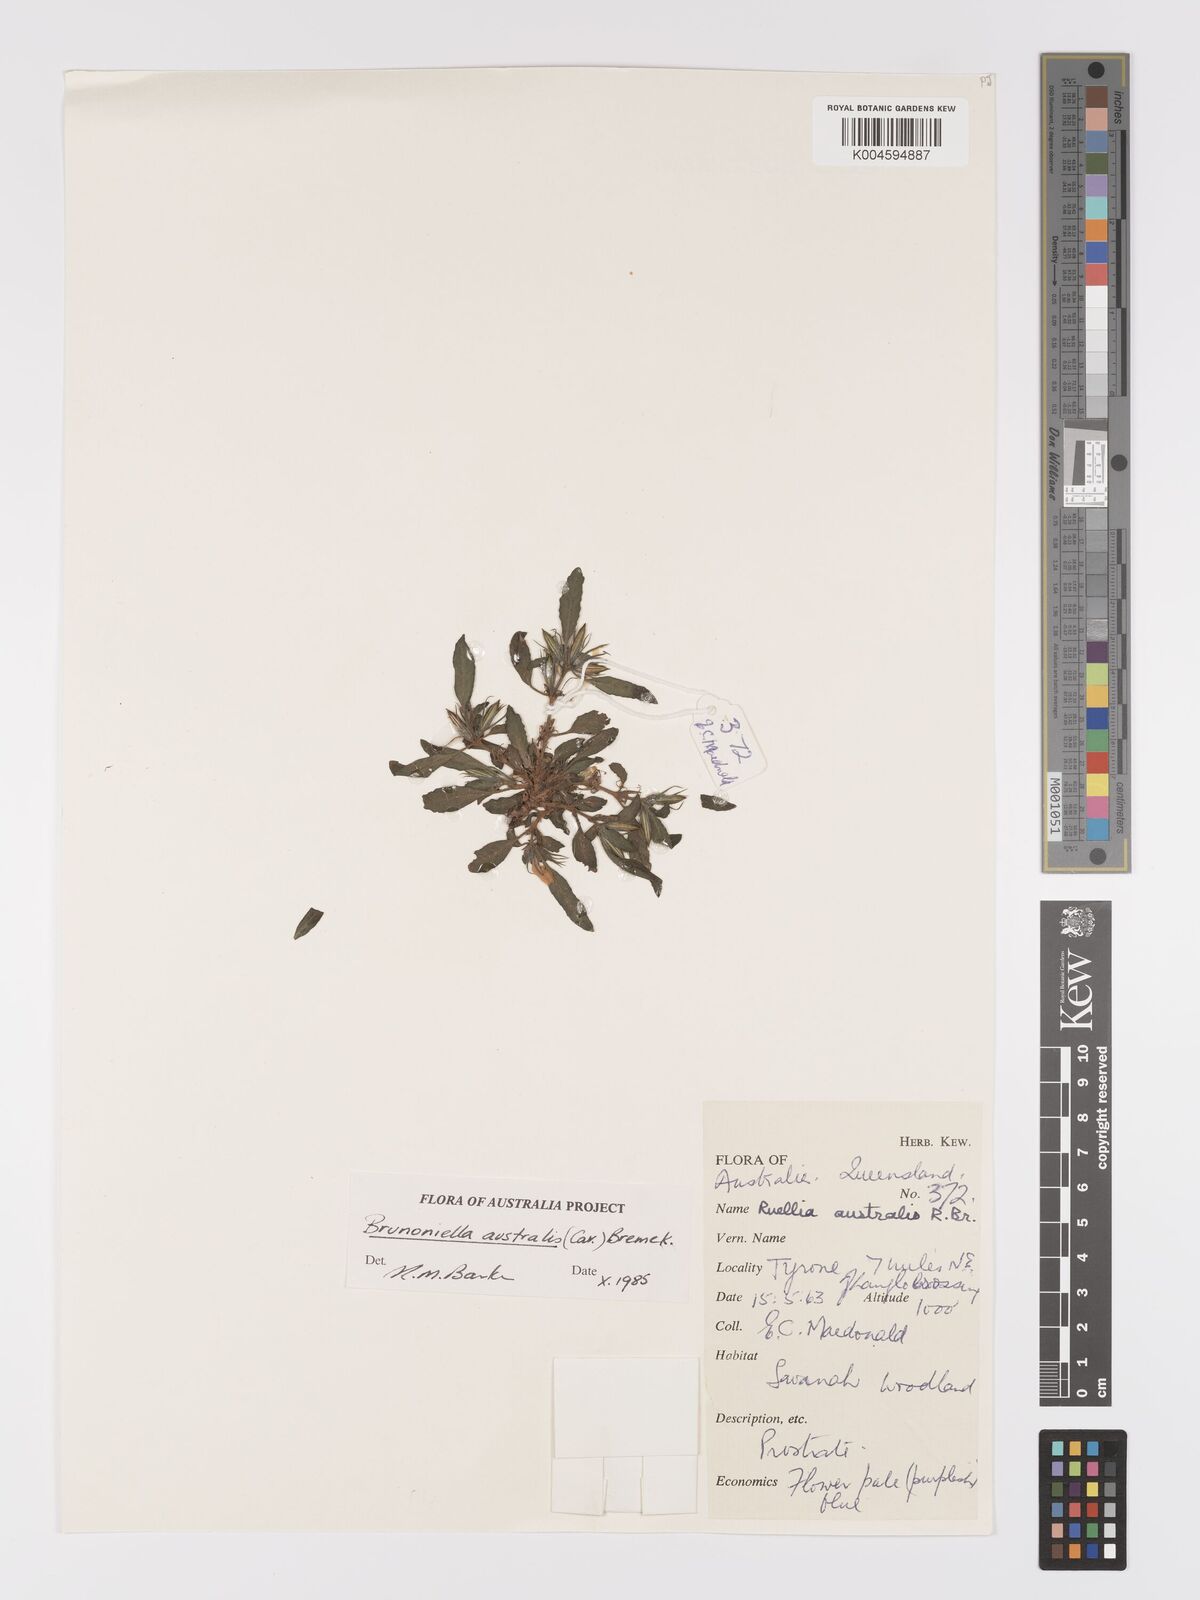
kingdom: Plantae
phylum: Tracheophyta
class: Magnoliopsida
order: Lamiales
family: Acanthaceae
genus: Brunoniella
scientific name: Brunoniella
